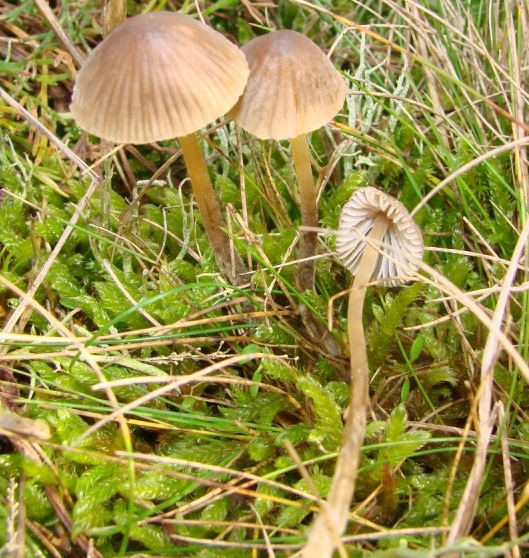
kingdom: Fungi
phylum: Basidiomycota
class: Agaricomycetes
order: Agaricales
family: Mycenaceae
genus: Mycena
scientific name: Mycena olivaceomarginata
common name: brunægget huesvamp
